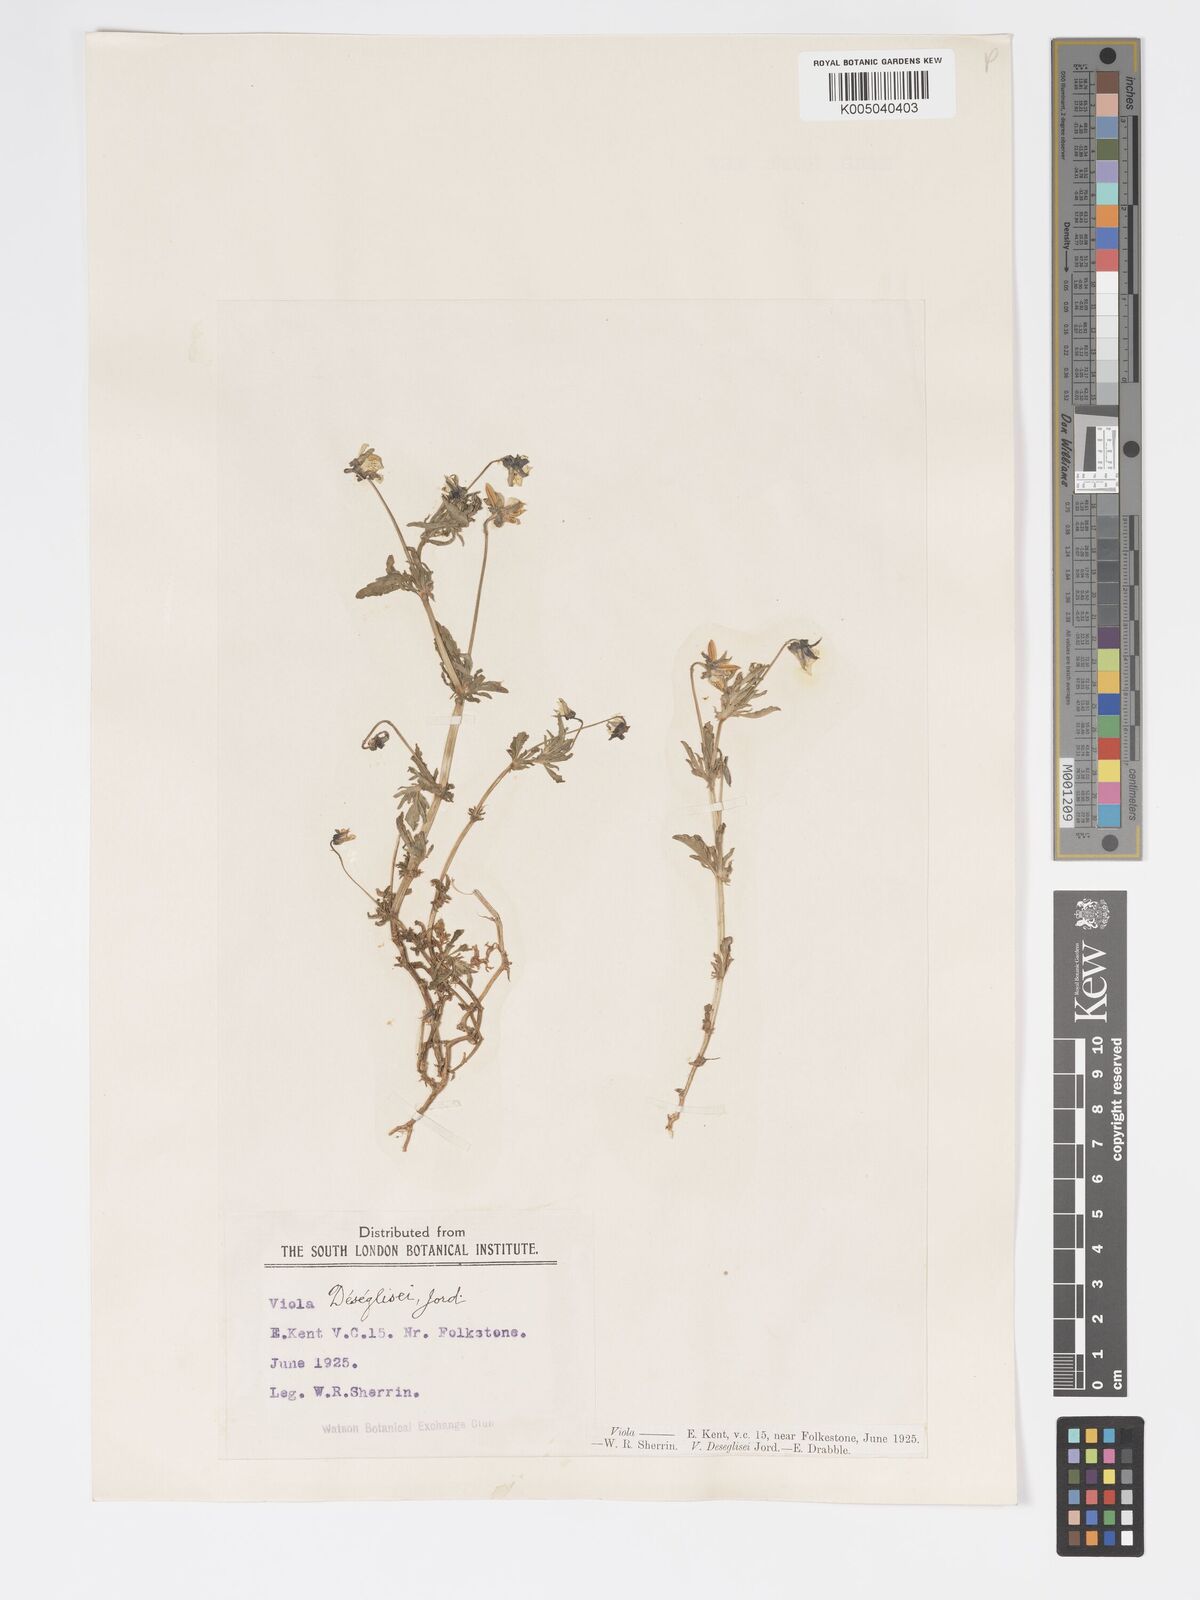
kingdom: Plantae
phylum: Tracheophyta
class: Magnoliopsida
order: Malpighiales
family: Violaceae
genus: Viola
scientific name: Viola arvensis
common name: Field pansy
